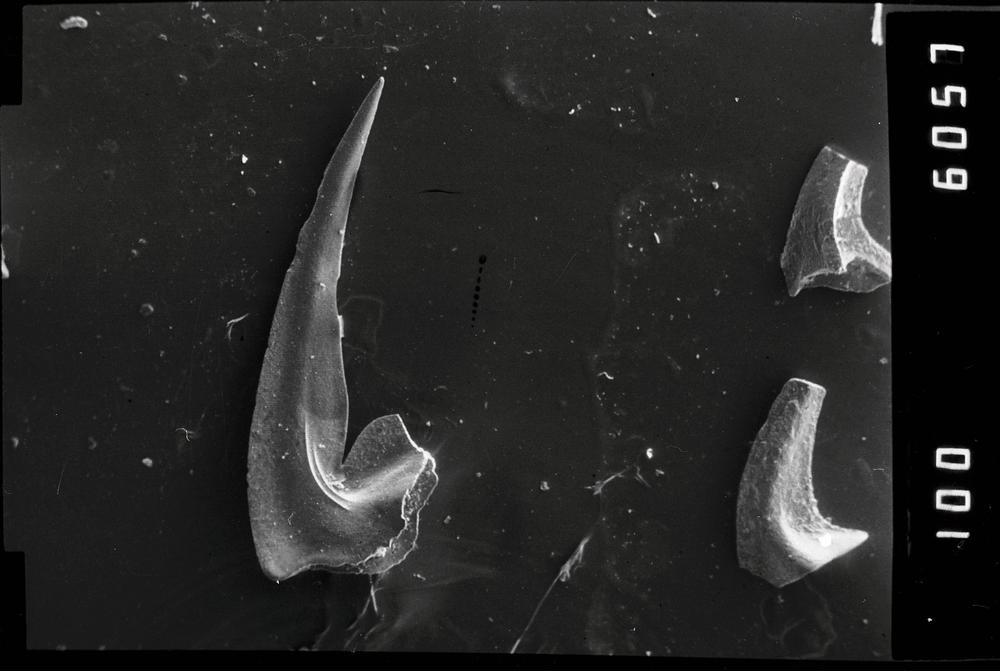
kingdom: Animalia
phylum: Chordata
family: Oistodontidae
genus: Oistodus
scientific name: Oistodus lanceolatus
